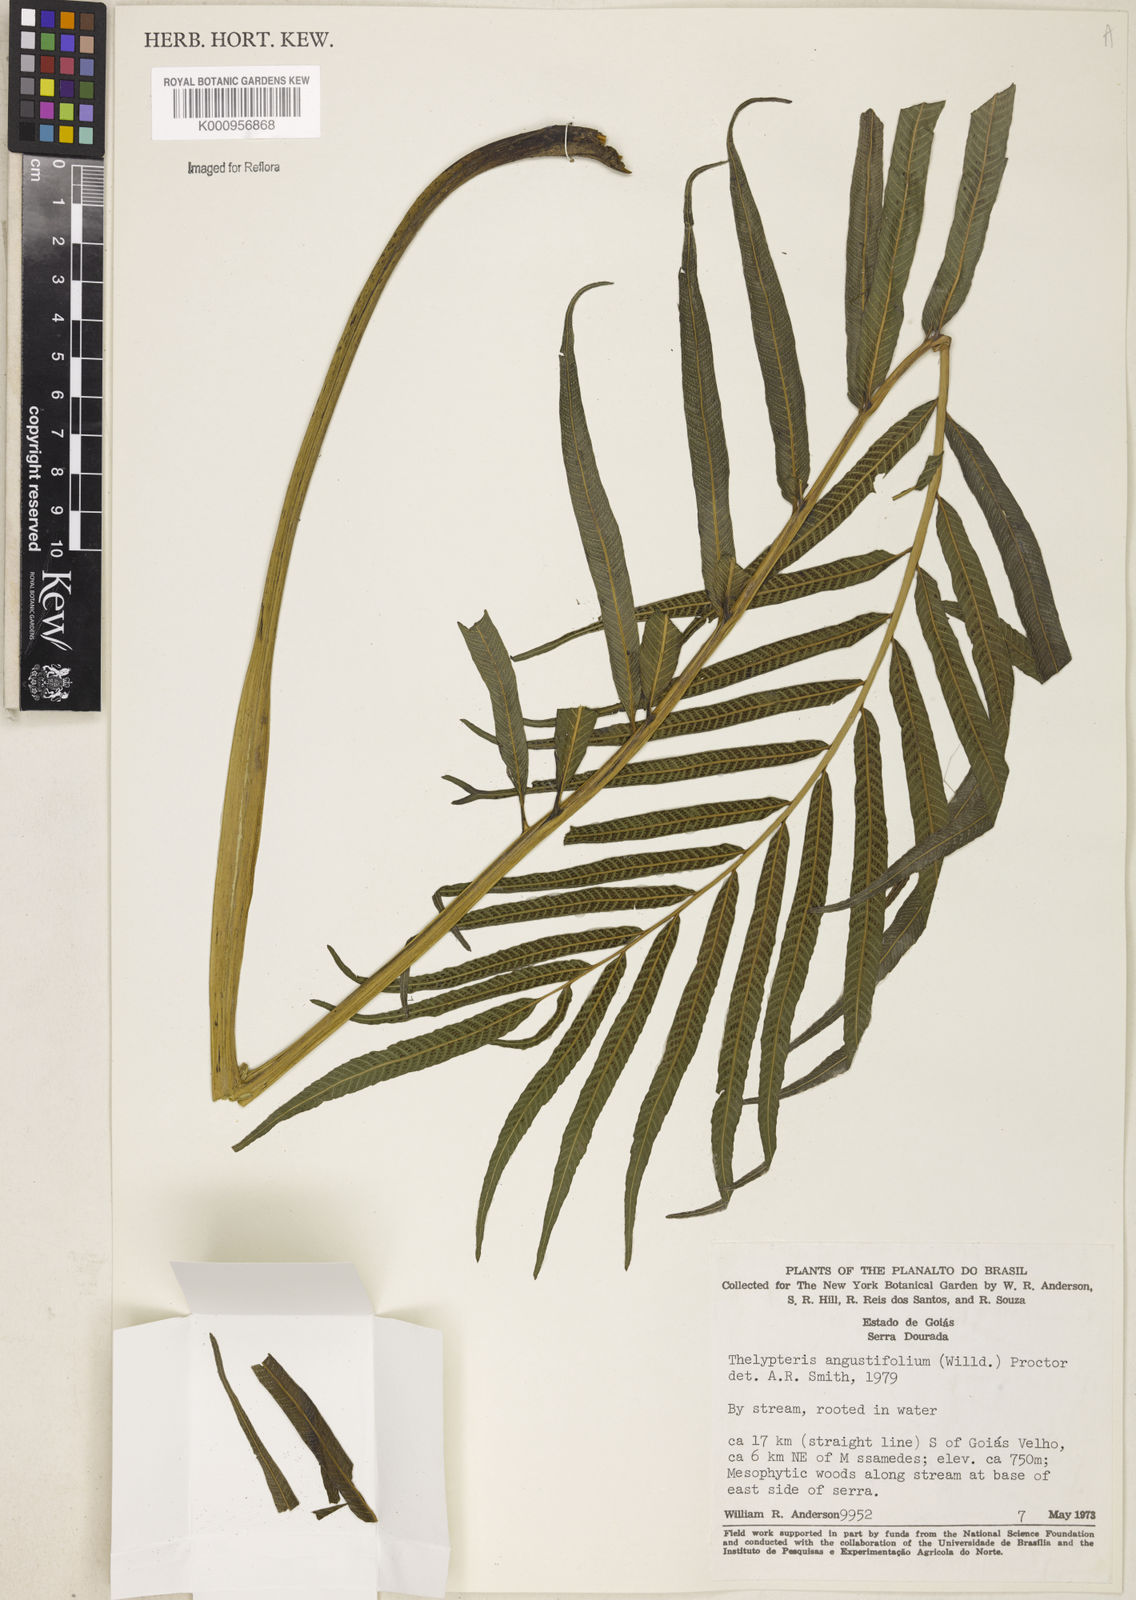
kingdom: Plantae
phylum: Tracheophyta
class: Polypodiopsida
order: Polypodiales
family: Thelypteridaceae
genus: Meniscium
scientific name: Meniscium angustifolium
